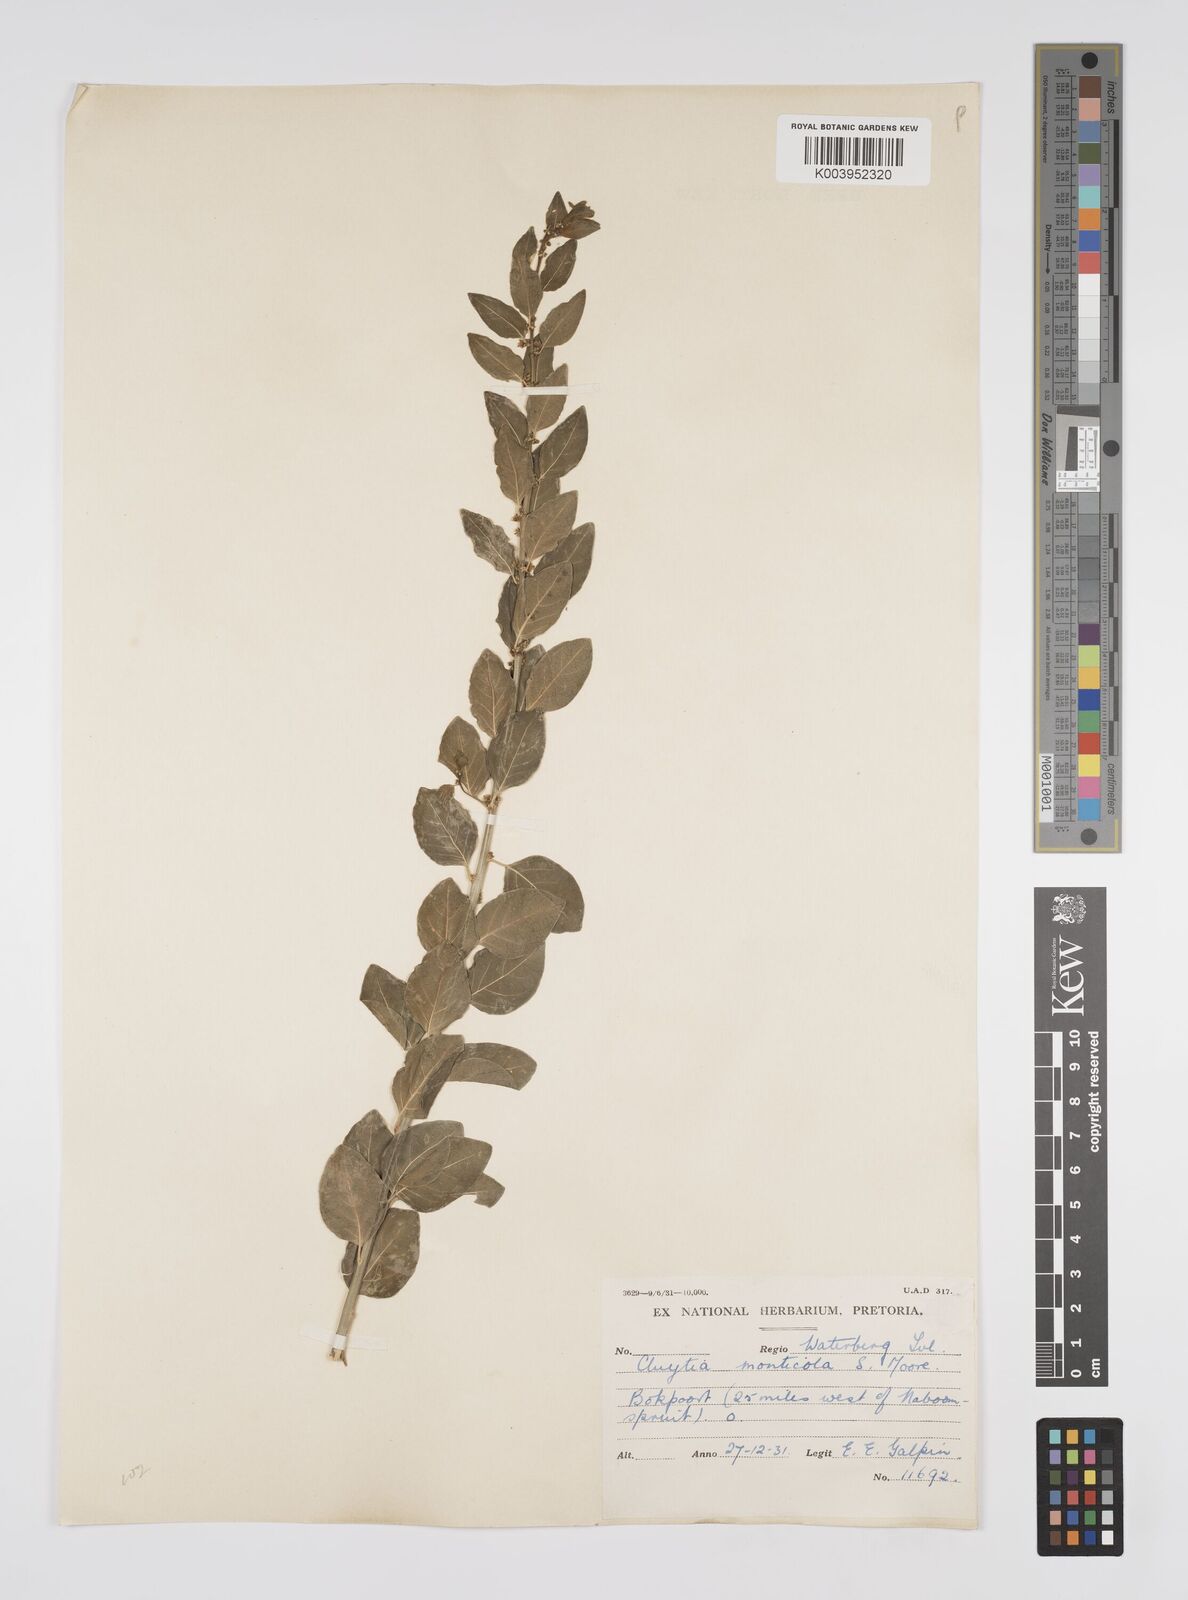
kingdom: Plantae
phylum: Tracheophyta
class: Magnoliopsida
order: Malpighiales
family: Peraceae
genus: Clutia
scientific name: Clutia
